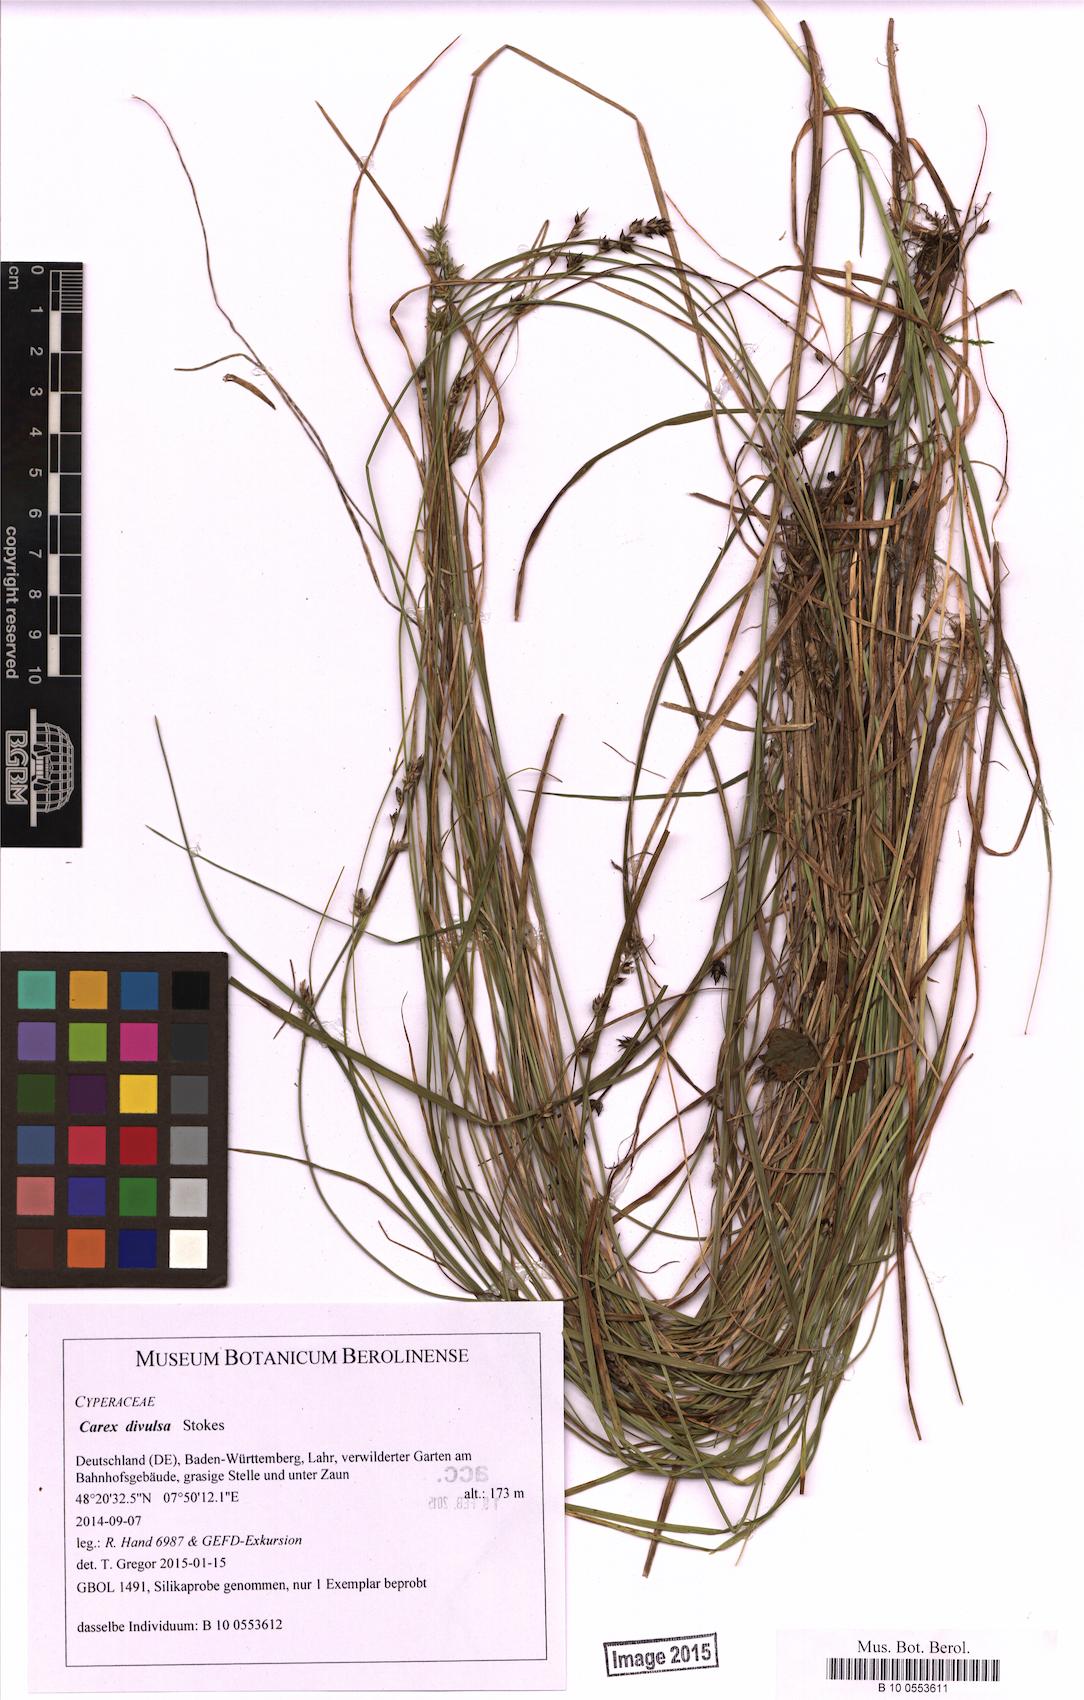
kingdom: Plantae
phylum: Tracheophyta
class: Liliopsida
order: Poales
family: Cyperaceae
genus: Carex
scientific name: Carex divulsa
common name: Grassland sedge
